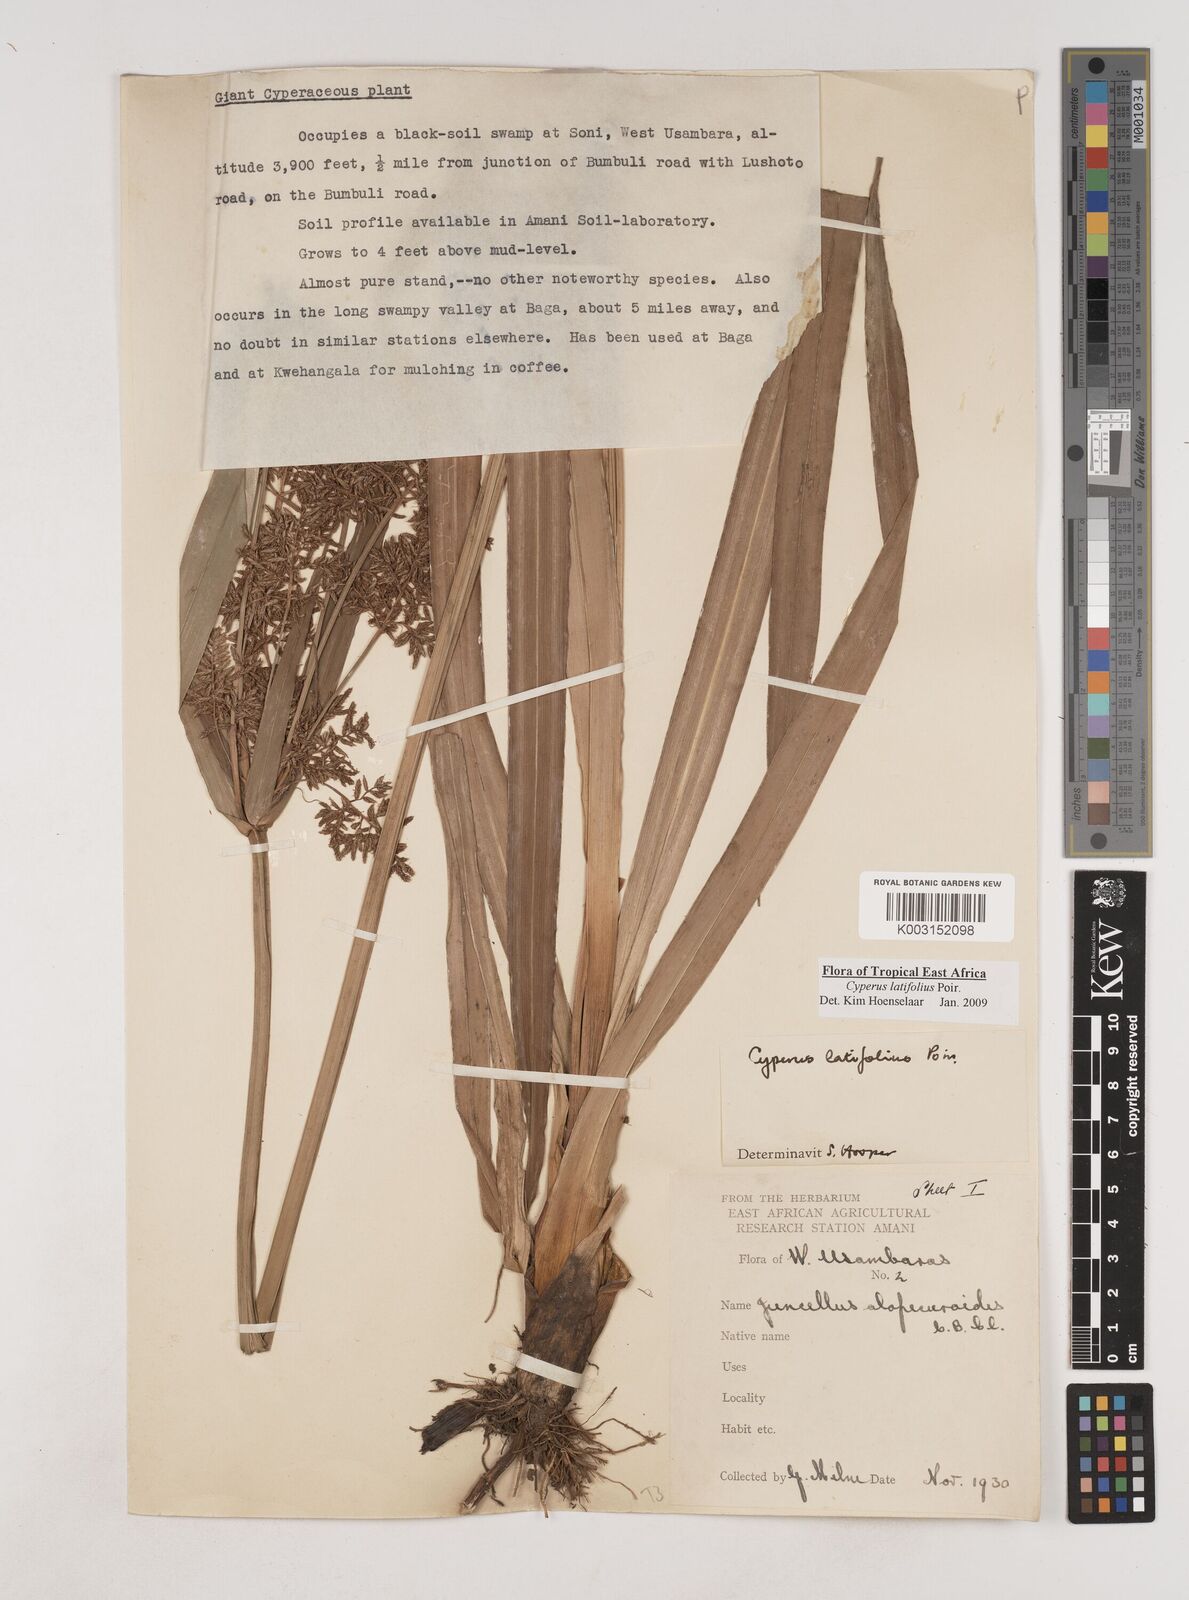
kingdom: Plantae
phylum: Tracheophyta
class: Liliopsida
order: Poales
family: Cyperaceae
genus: Cyperus
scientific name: Cyperus latifolius
